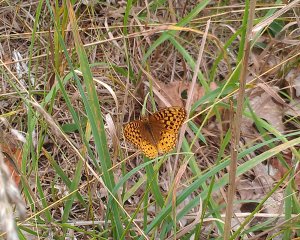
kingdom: Animalia
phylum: Arthropoda
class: Insecta
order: Lepidoptera
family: Nymphalidae
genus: Speyeria
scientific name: Speyeria cybele
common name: Great Spangled Fritillary
